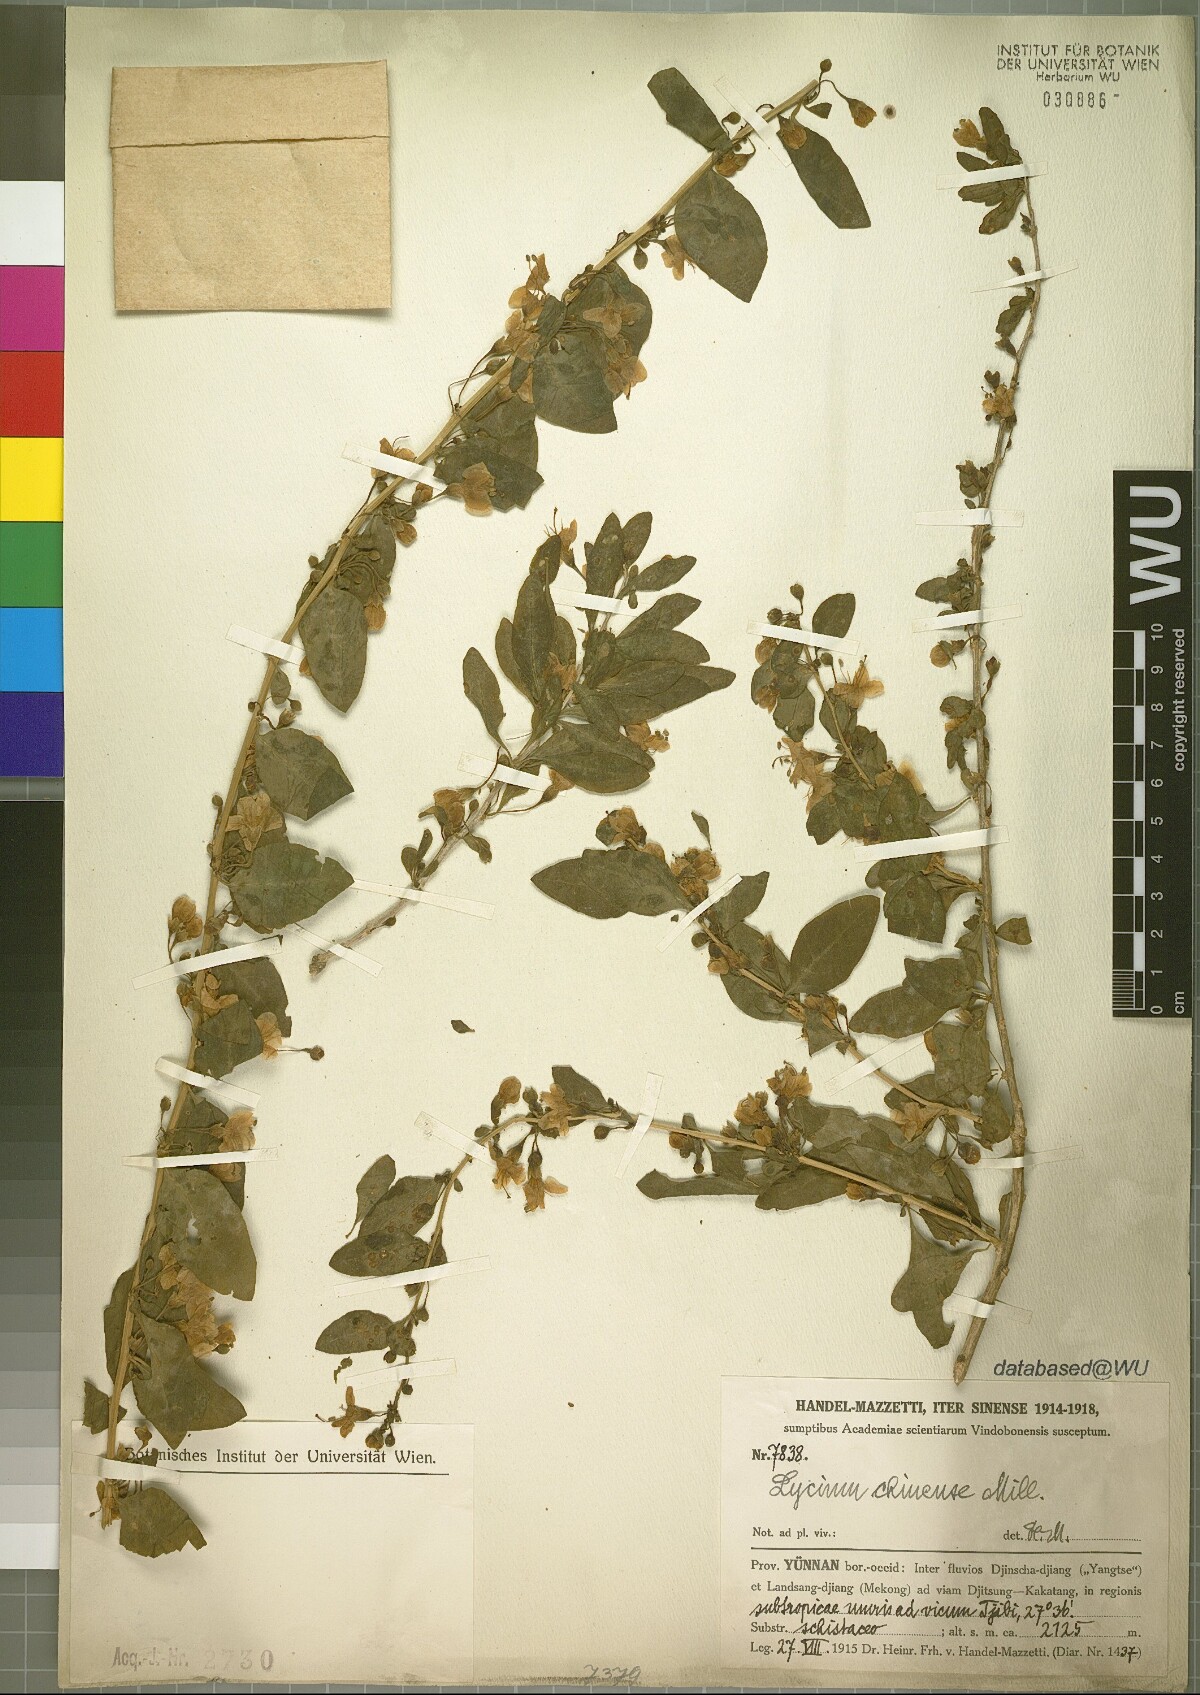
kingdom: Plantae
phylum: Tracheophyta
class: Magnoliopsida
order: Solanales
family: Solanaceae
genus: Lycium
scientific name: Lycium chinense
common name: Chinese teaplant
